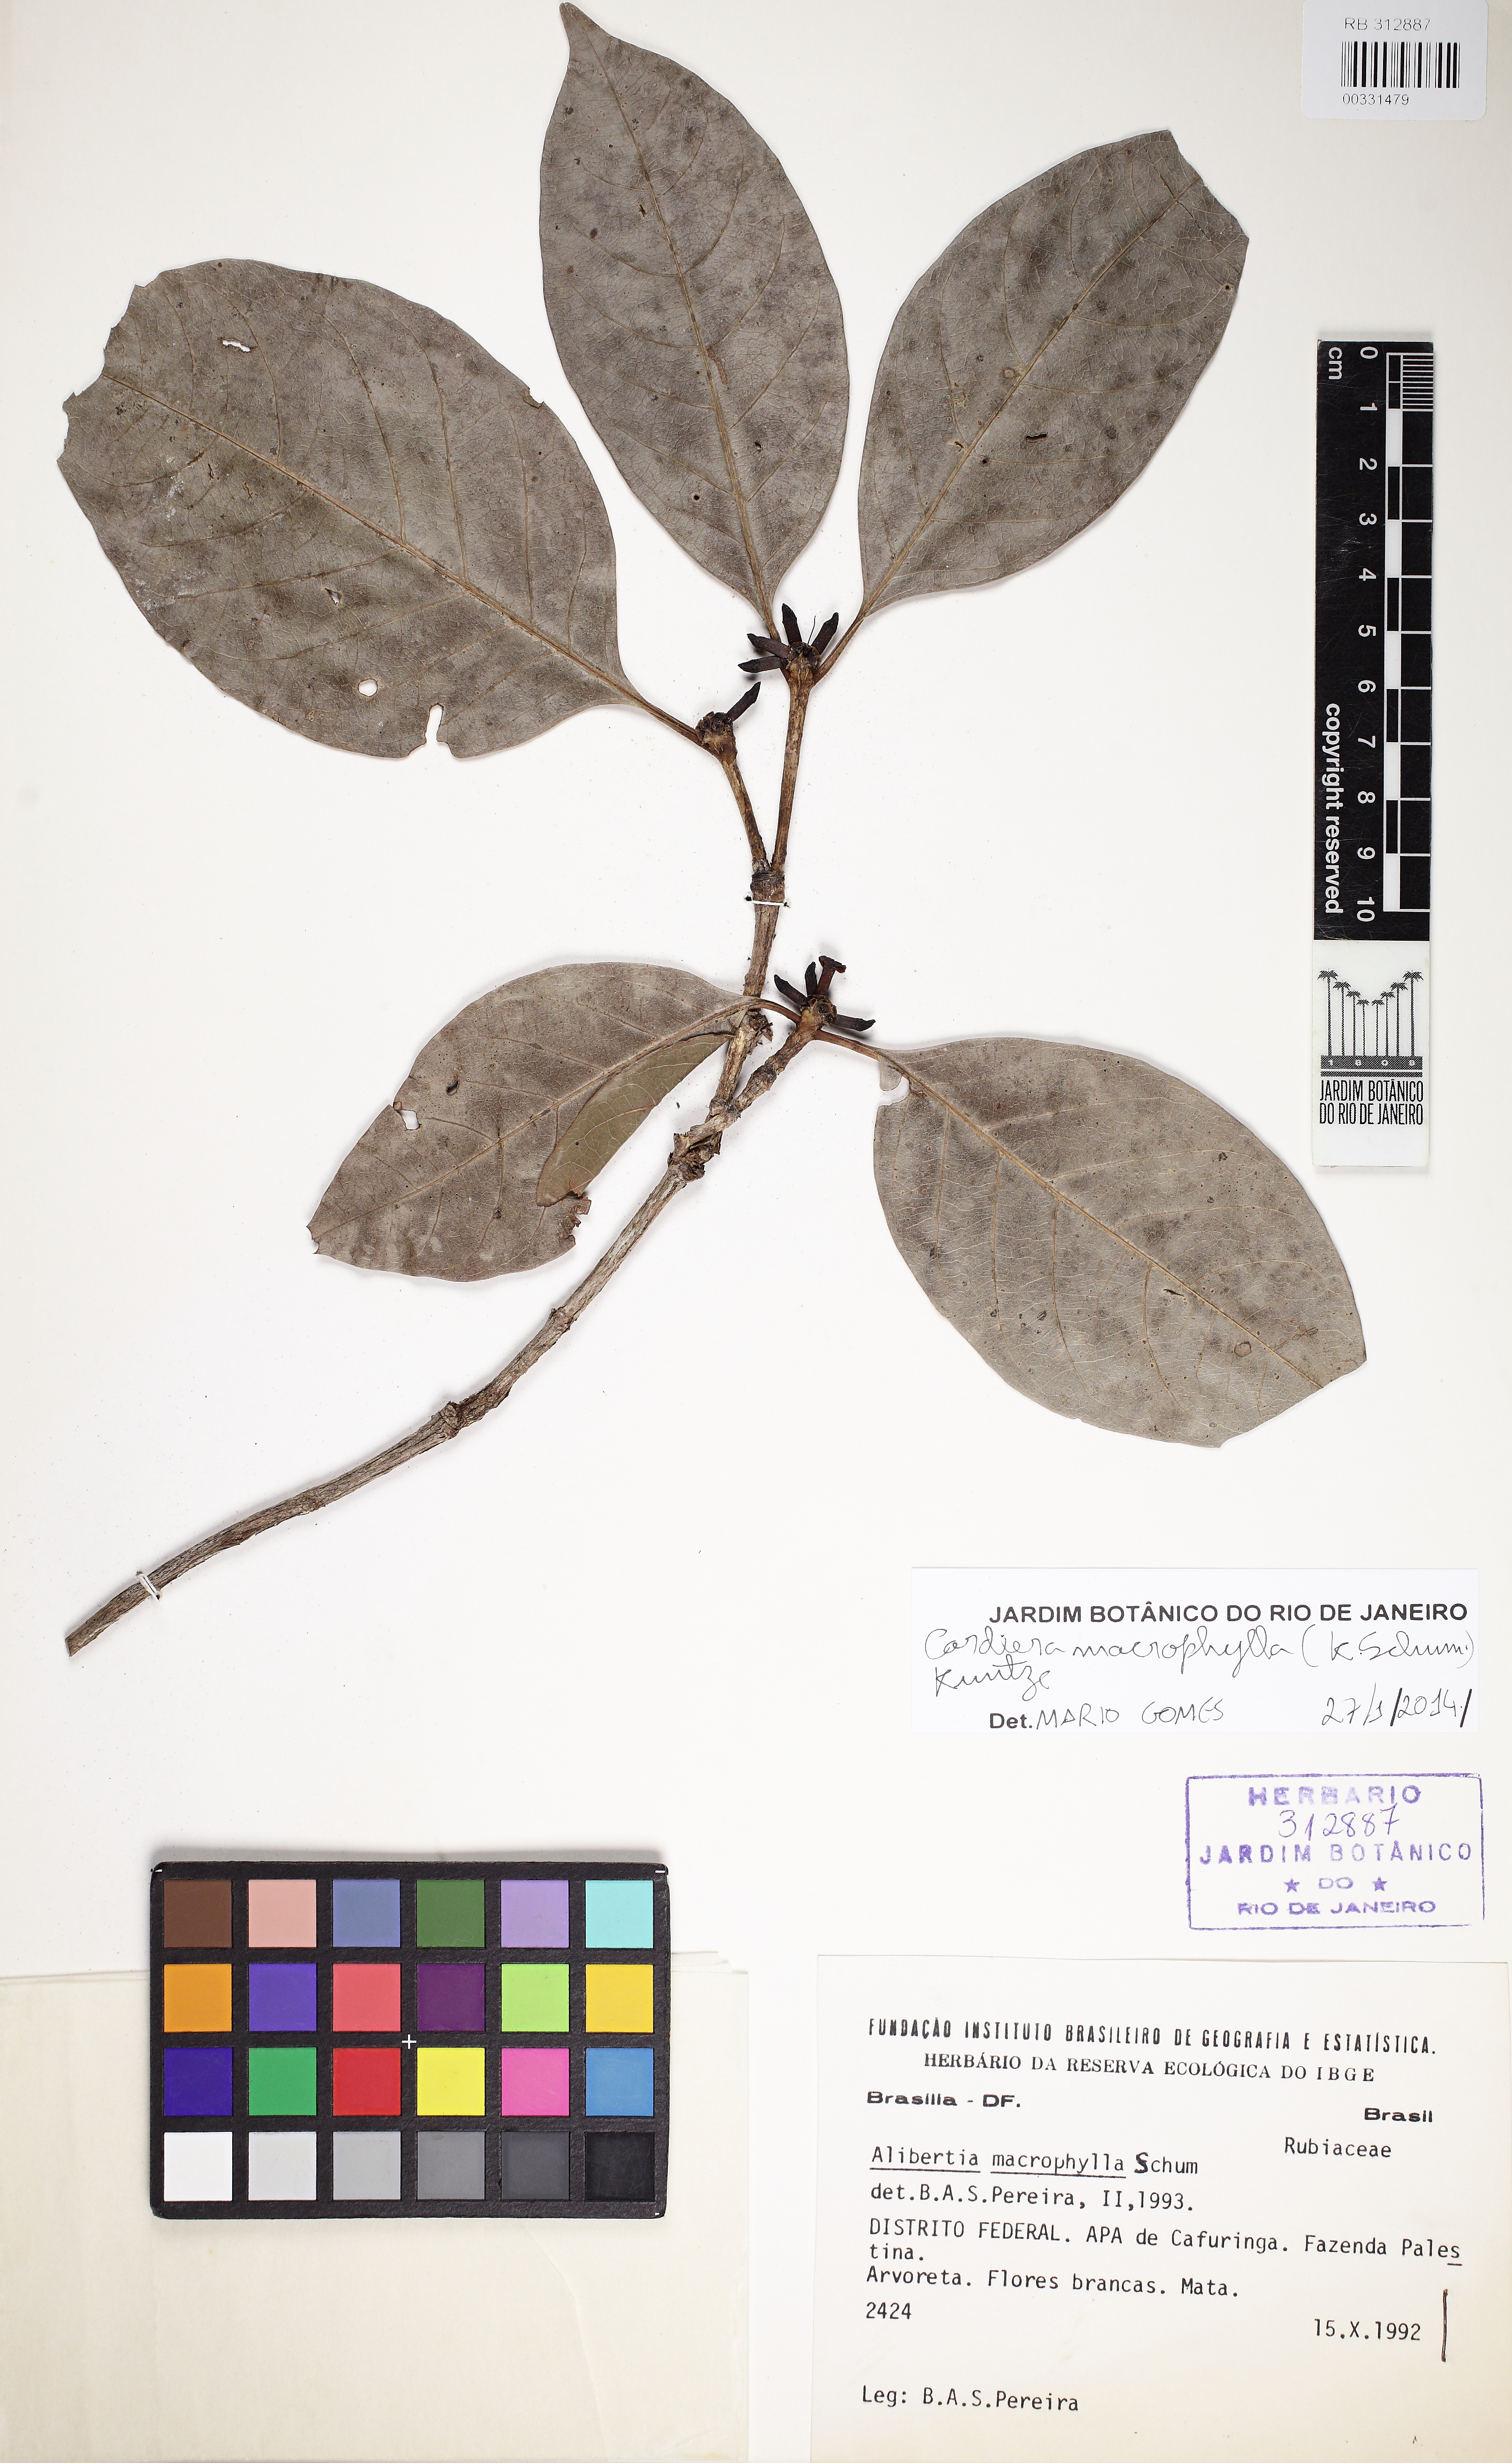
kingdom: Plantae
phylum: Tracheophyta
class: Magnoliopsida
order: Gentianales
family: Rubiaceae
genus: Cordiera
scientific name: Cordiera sessilis
